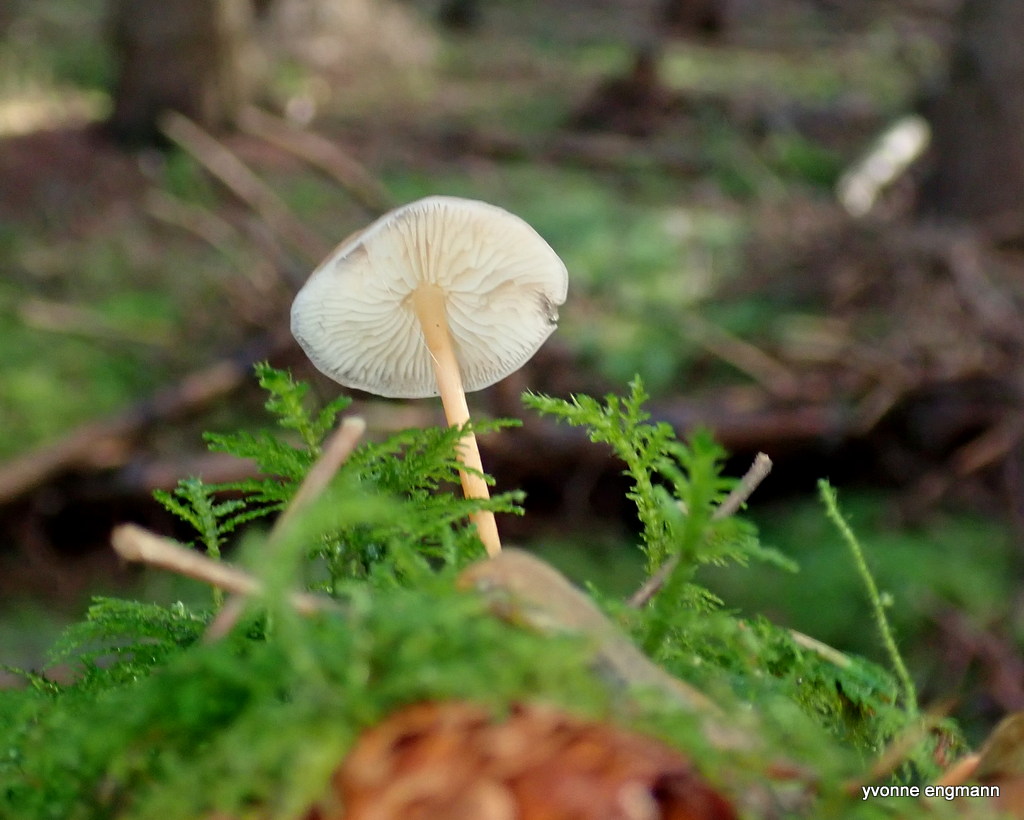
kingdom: Fungi
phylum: Basidiomycota
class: Agaricomycetes
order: Agaricales
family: Physalacriaceae
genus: Strobilurus
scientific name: Strobilurus esculentus
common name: gran-koglehat
